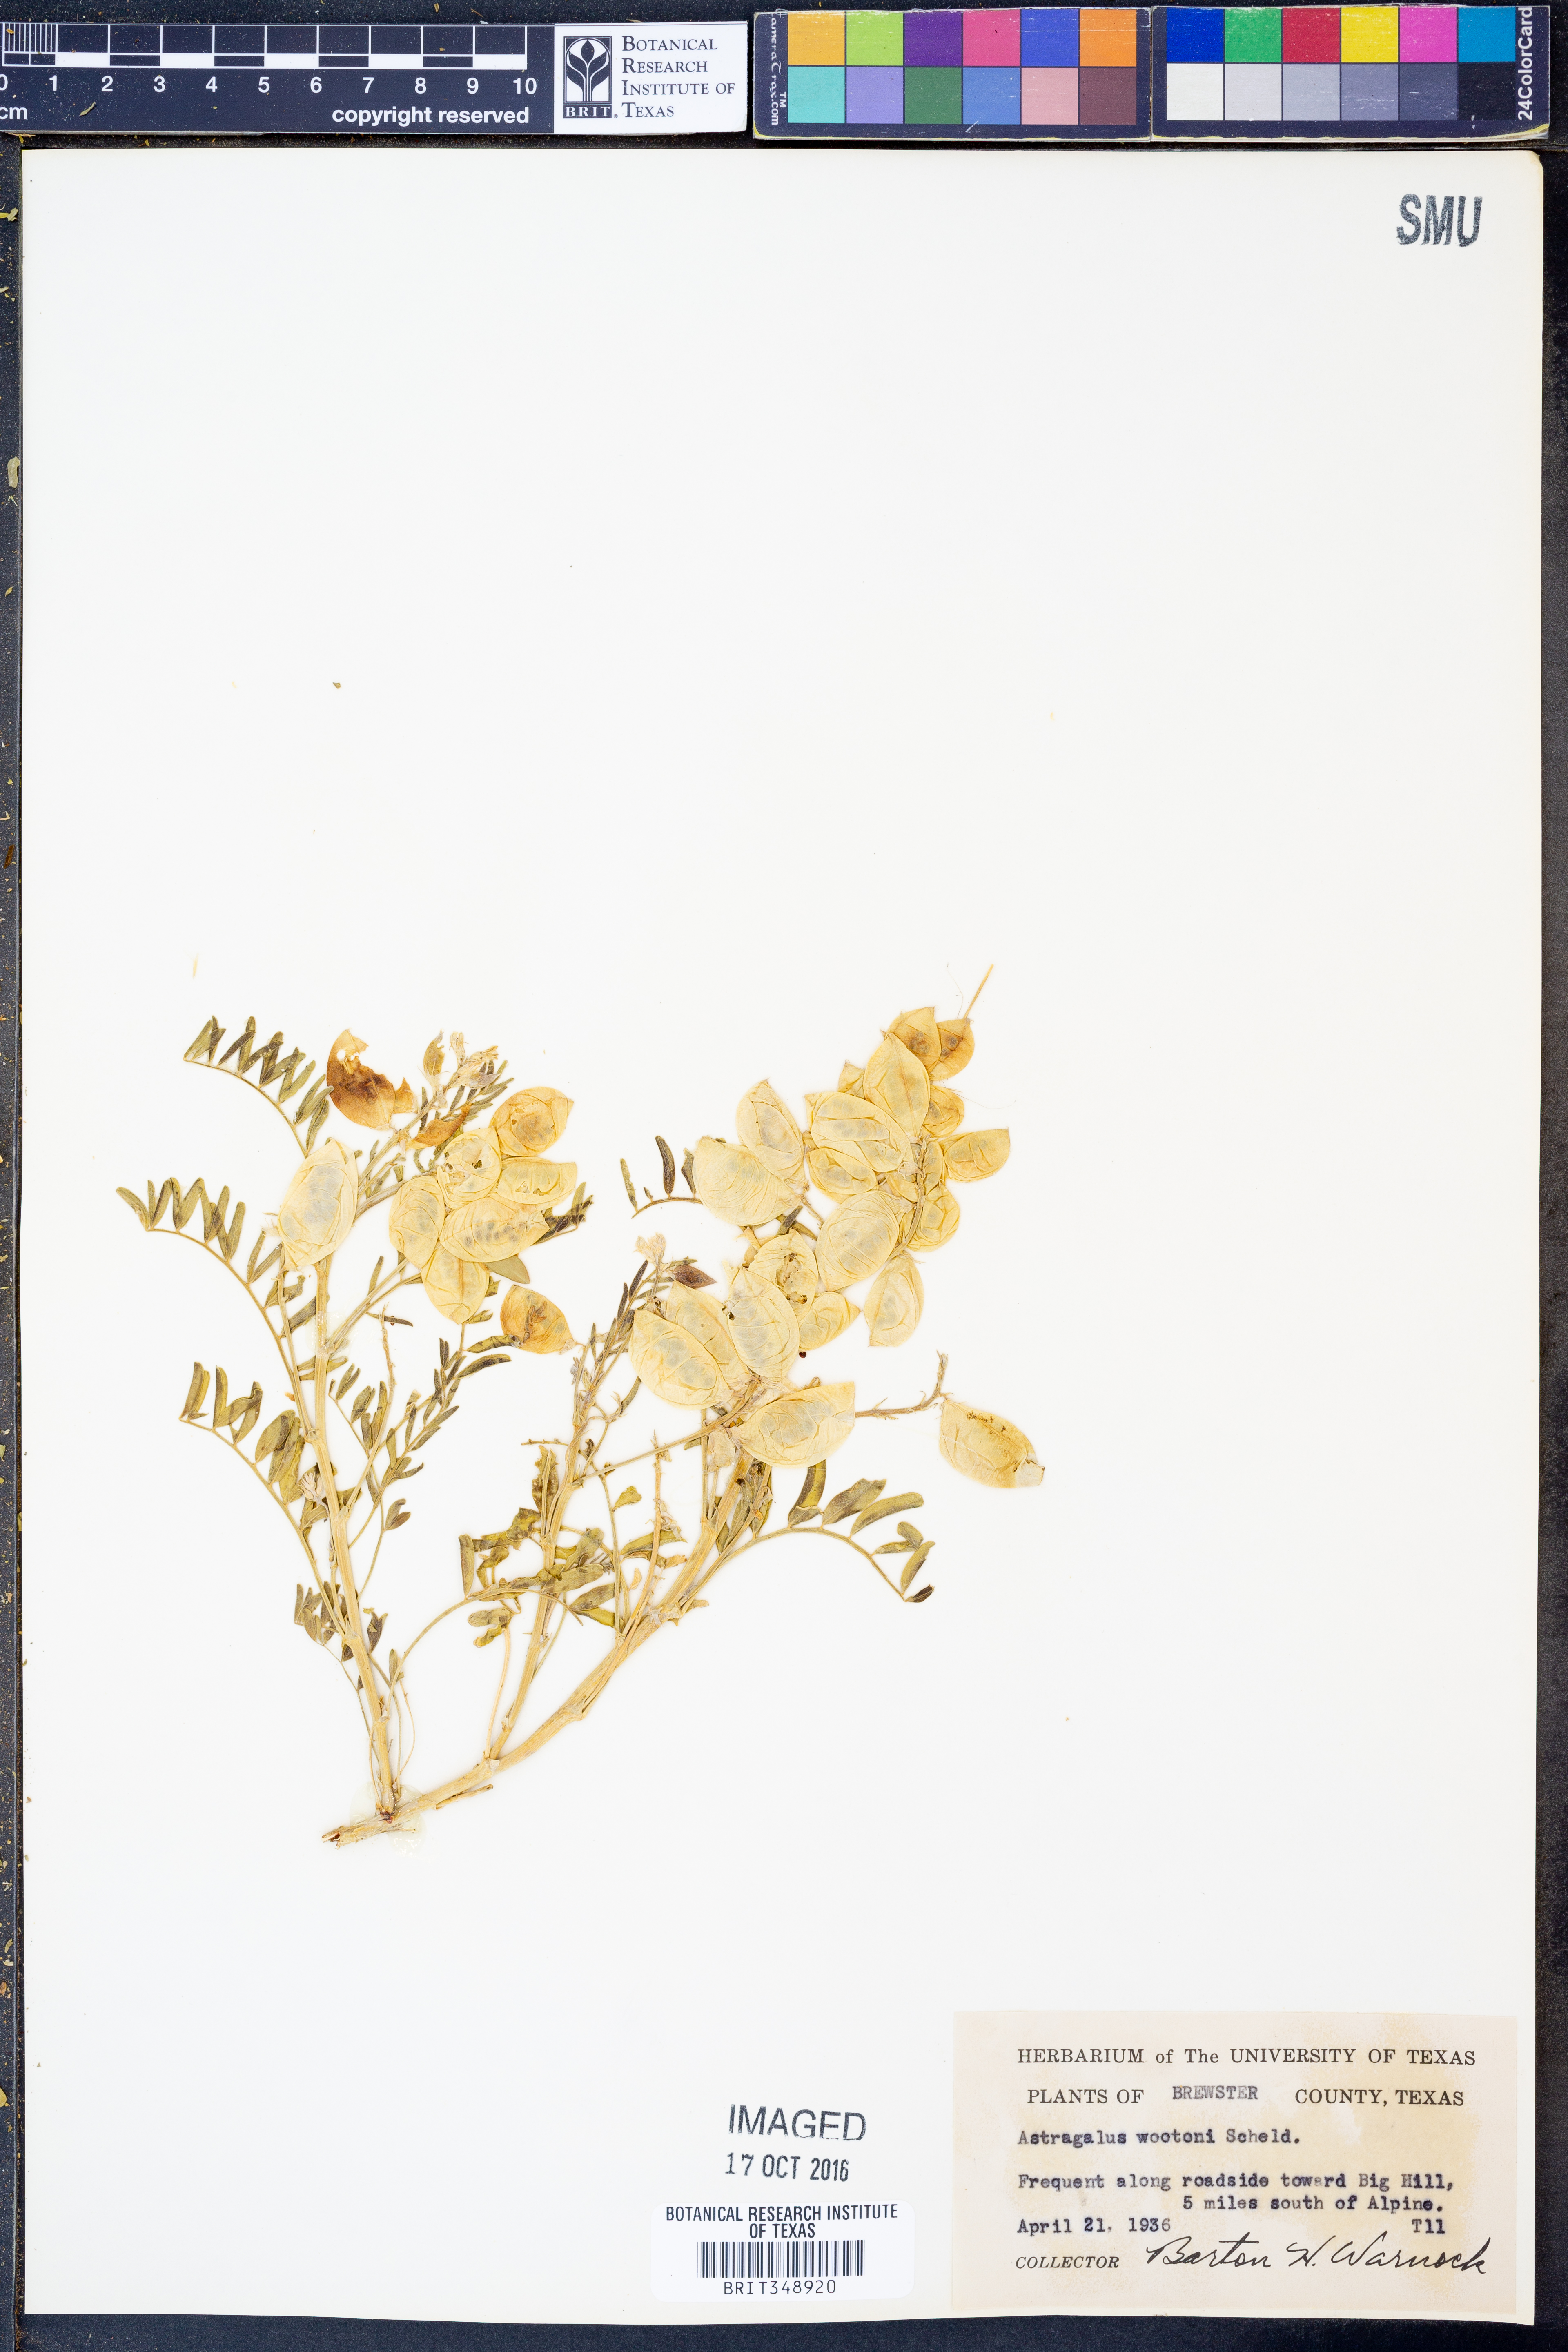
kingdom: Plantae
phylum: Tracheophyta
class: Magnoliopsida
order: Fabales
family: Fabaceae
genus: Astragalus
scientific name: Astragalus wootonii
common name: Wooton's milk-vetch
